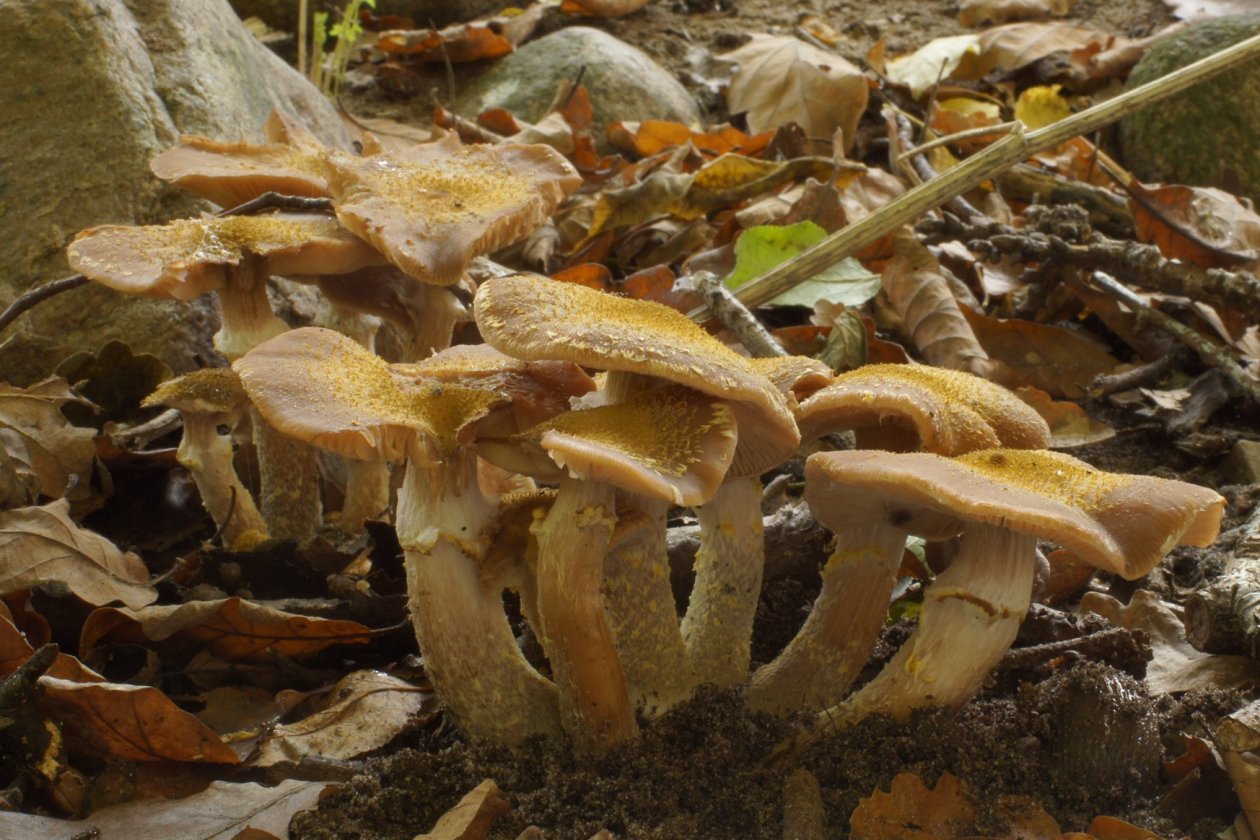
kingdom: Fungi
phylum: Basidiomycota
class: Agaricomycetes
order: Agaricales
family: Physalacriaceae
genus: Armillaria
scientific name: Armillaria lutea
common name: køllestokket honningsvamp
